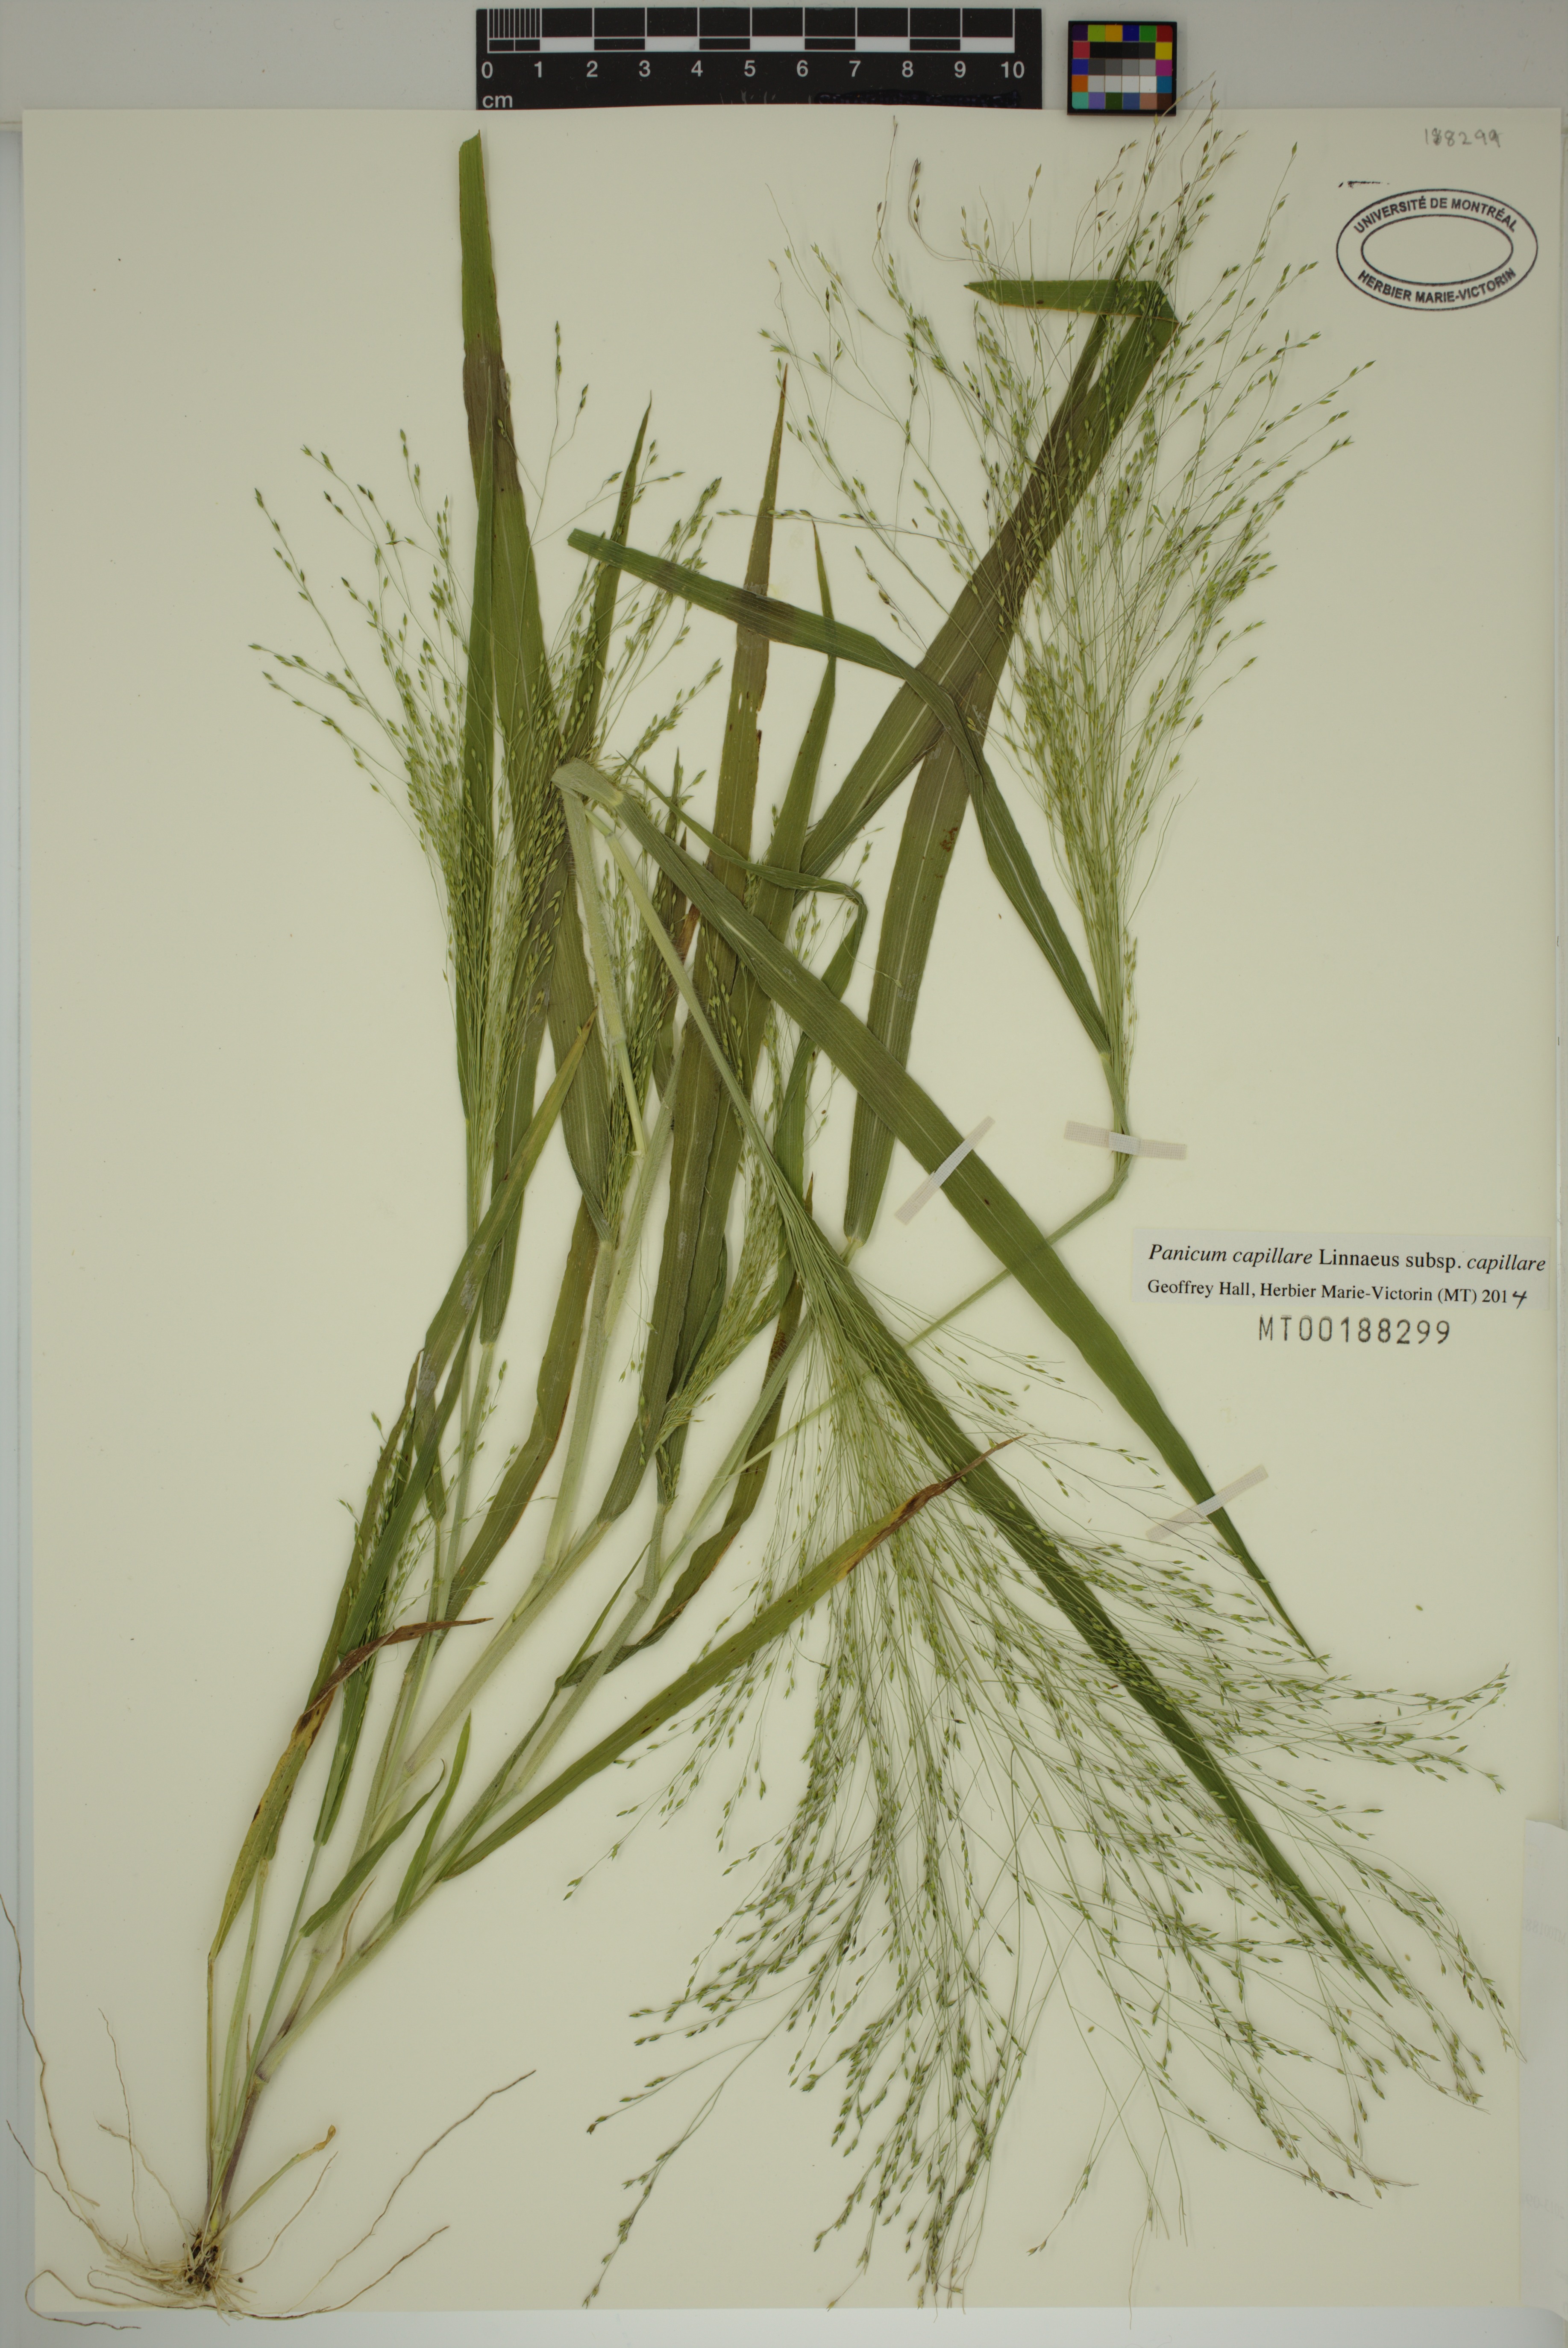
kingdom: Plantae
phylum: Tracheophyta
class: Liliopsida
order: Poales
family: Poaceae
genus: Panicum
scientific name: Panicum capillare
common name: Witch-grass
